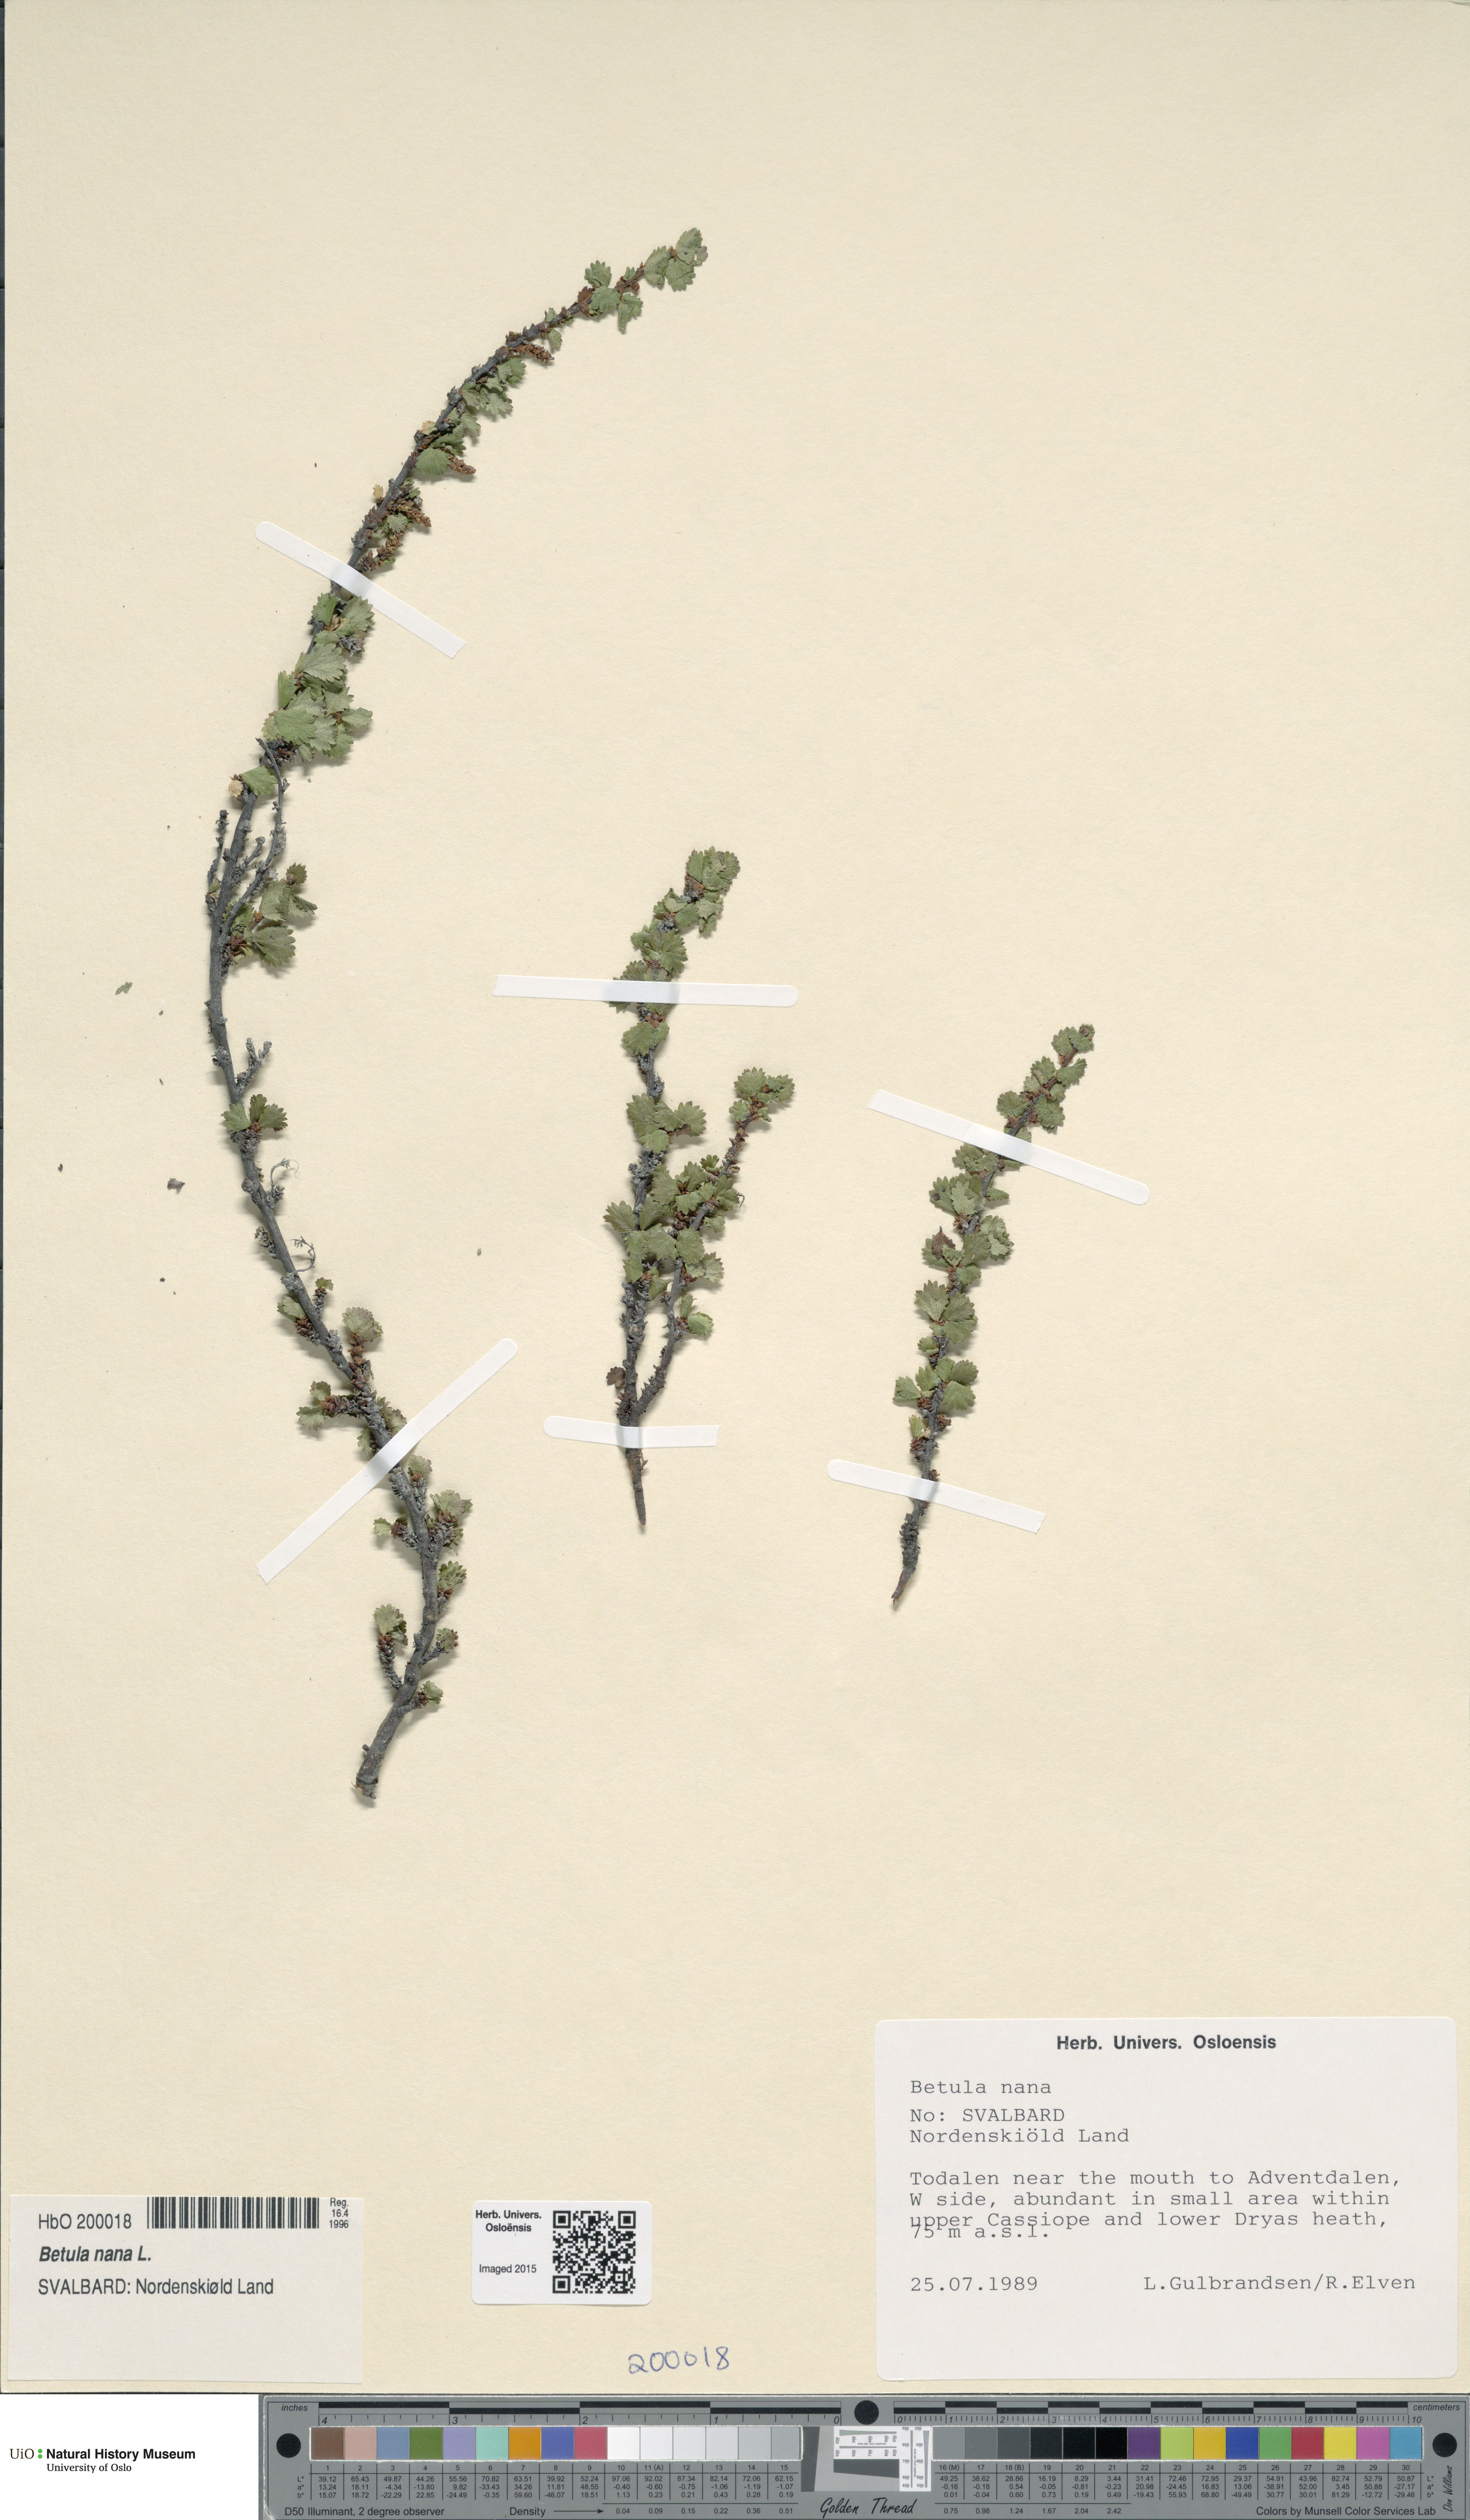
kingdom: Plantae
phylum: Tracheophyta
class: Magnoliopsida
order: Fagales
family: Betulaceae
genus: Betula
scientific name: Betula nana
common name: Arctic dwarf birch
